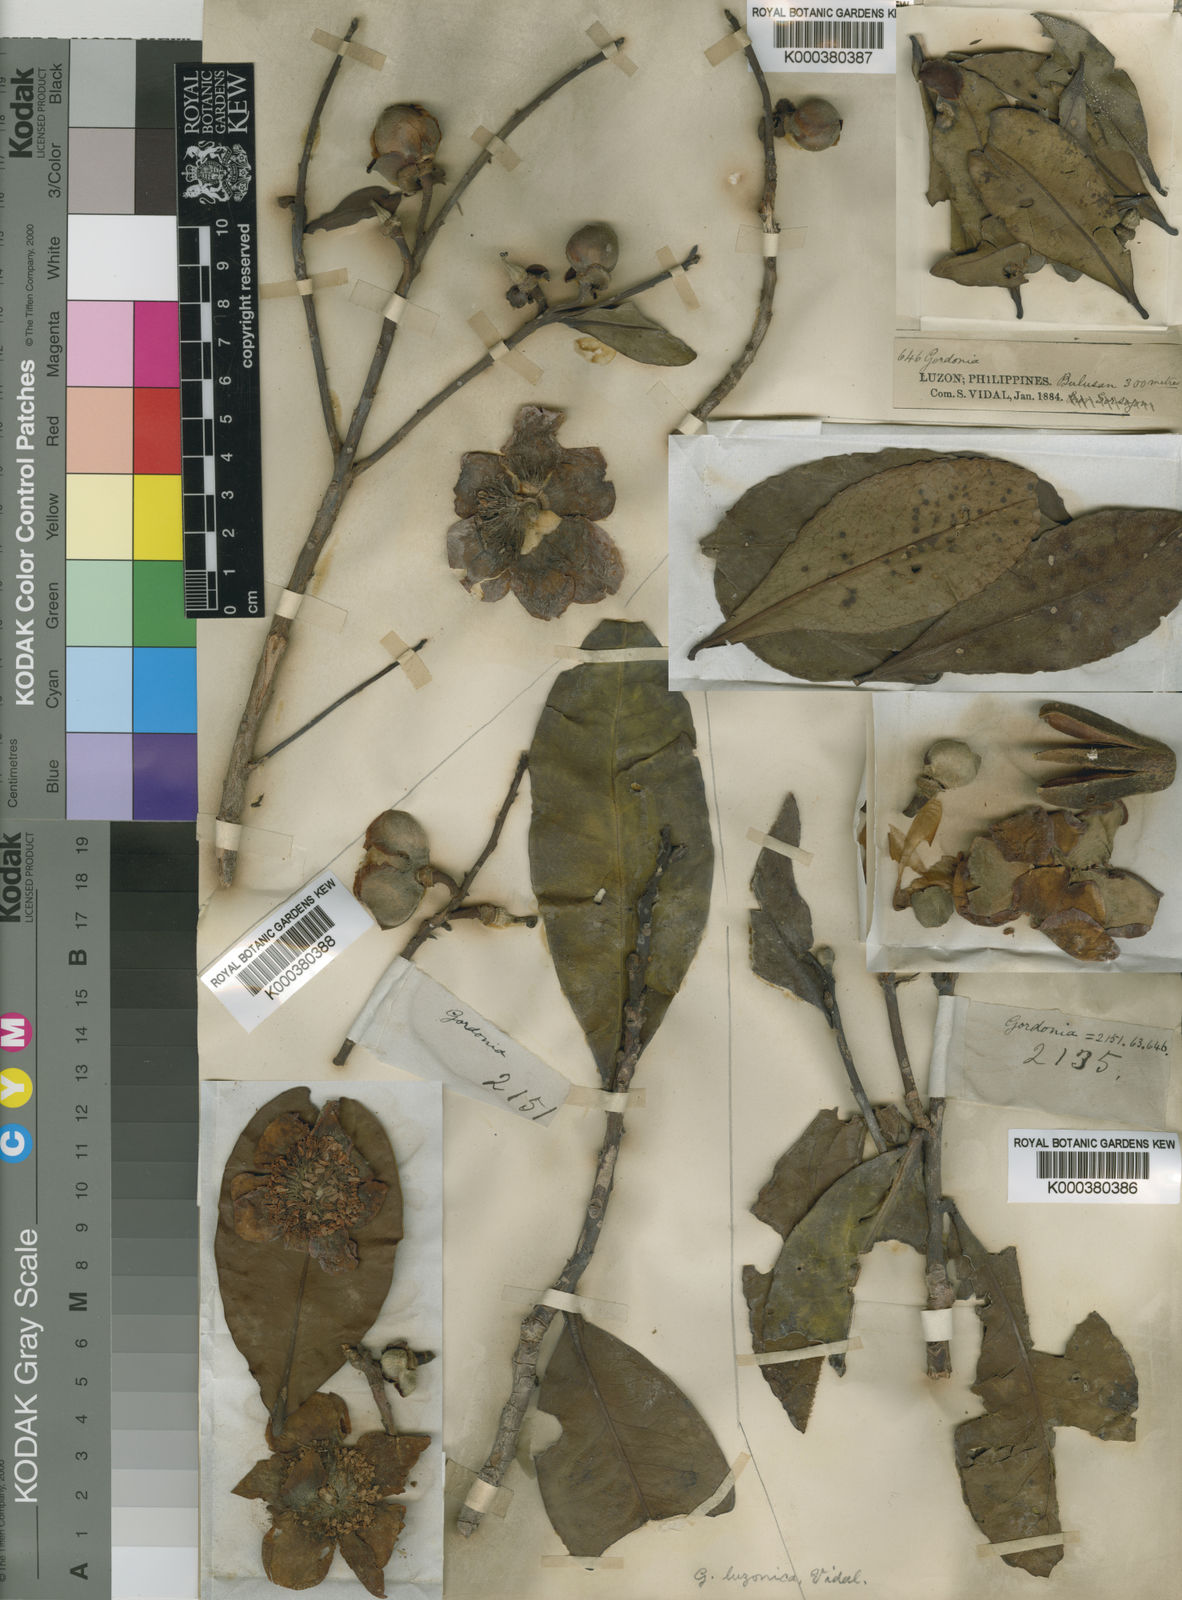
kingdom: Plantae
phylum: Tracheophyta
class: Magnoliopsida
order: Ericales
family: Theaceae
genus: Polyspora
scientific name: Polyspora luzonica
